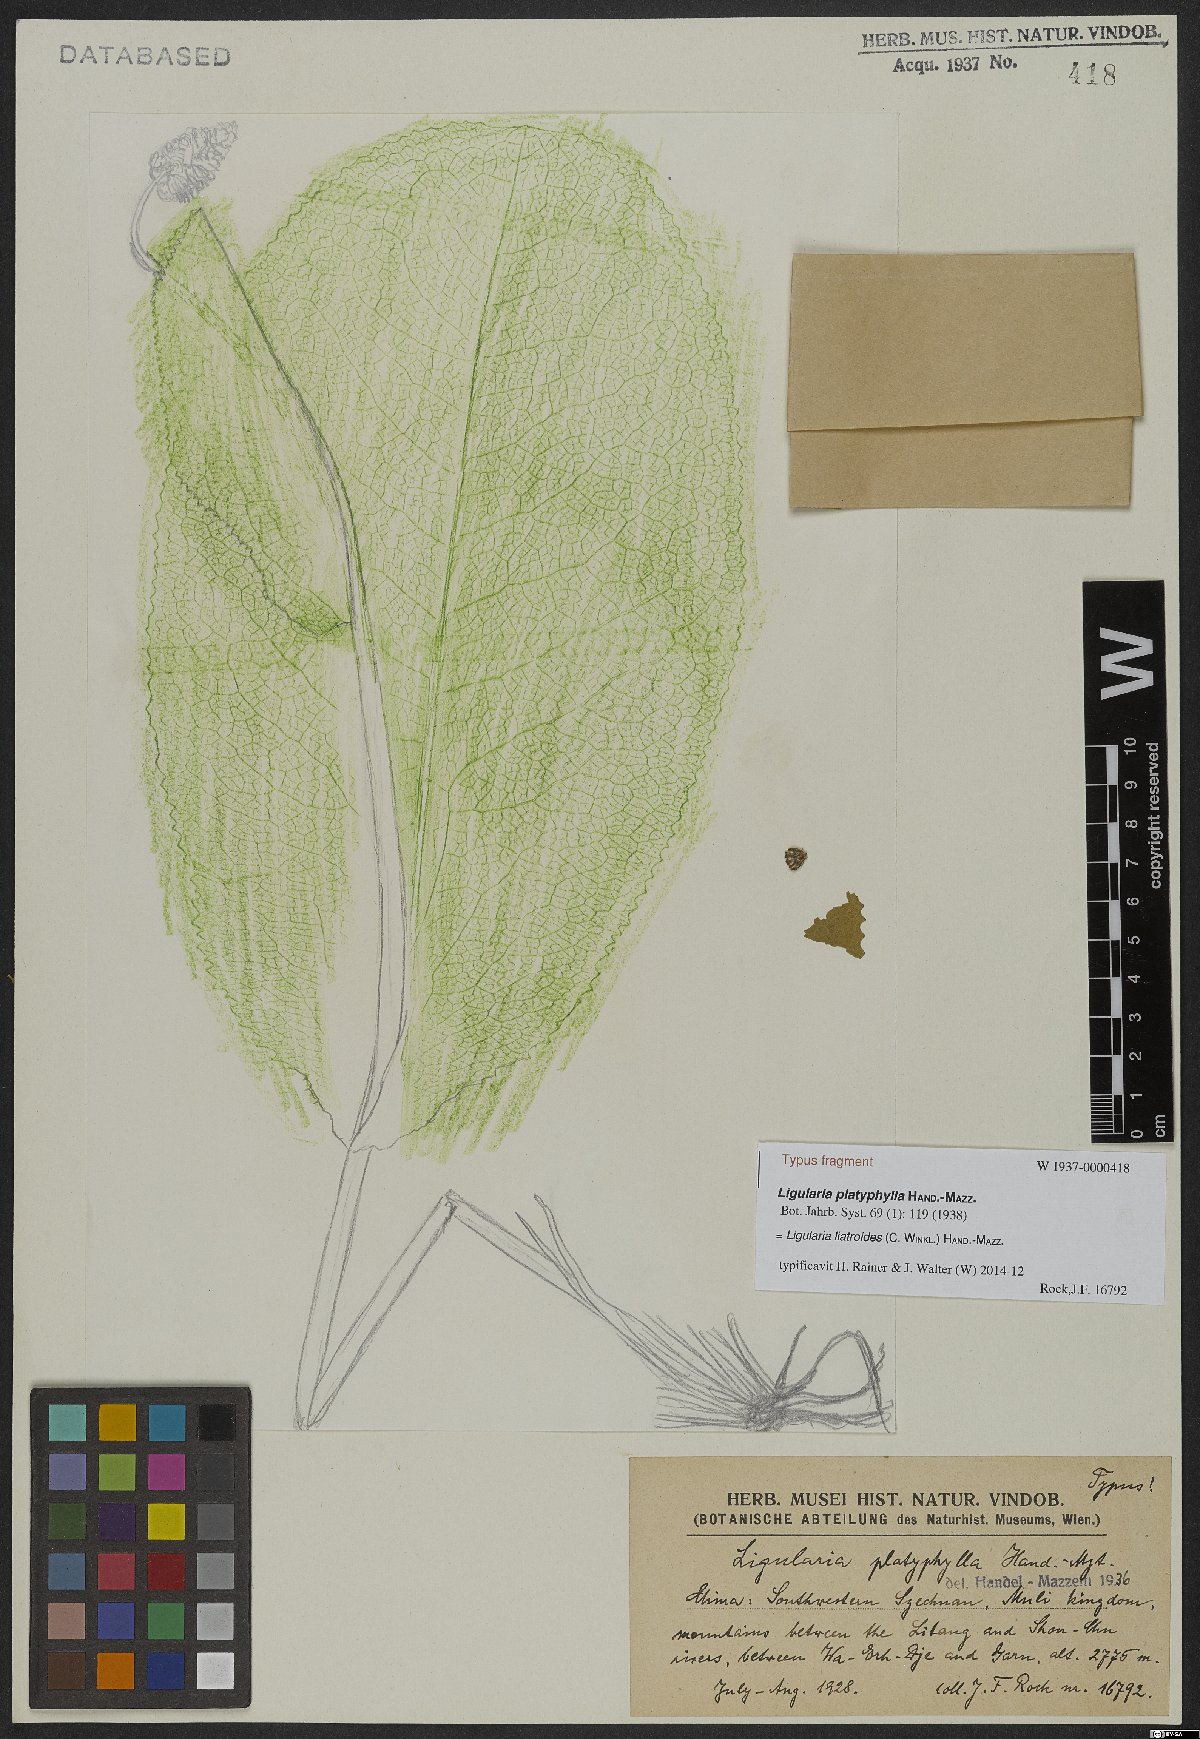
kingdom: Plantae
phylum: Tracheophyta
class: Magnoliopsida
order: Asterales
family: Asteraceae
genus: Ligularia
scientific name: Ligularia liatroides
